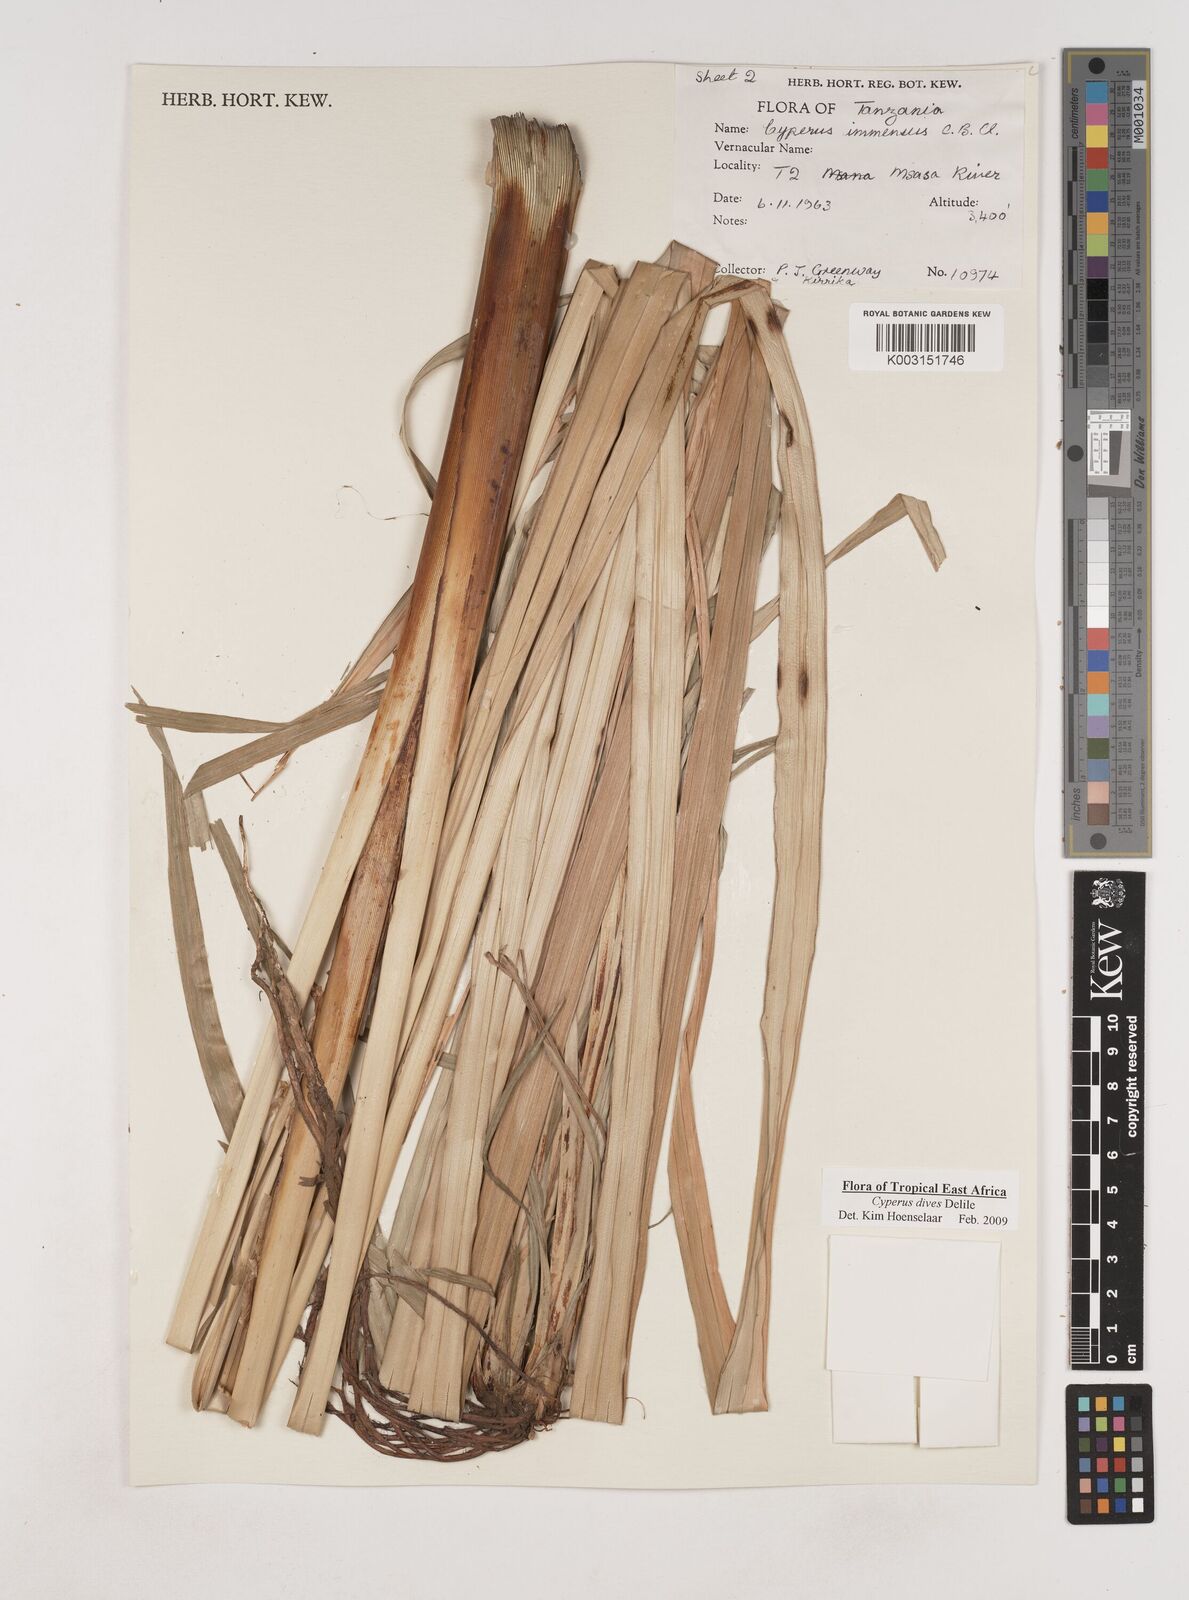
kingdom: Plantae
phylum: Tracheophyta
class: Liliopsida
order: Poales
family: Cyperaceae
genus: Cyperus
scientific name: Cyperus dives
